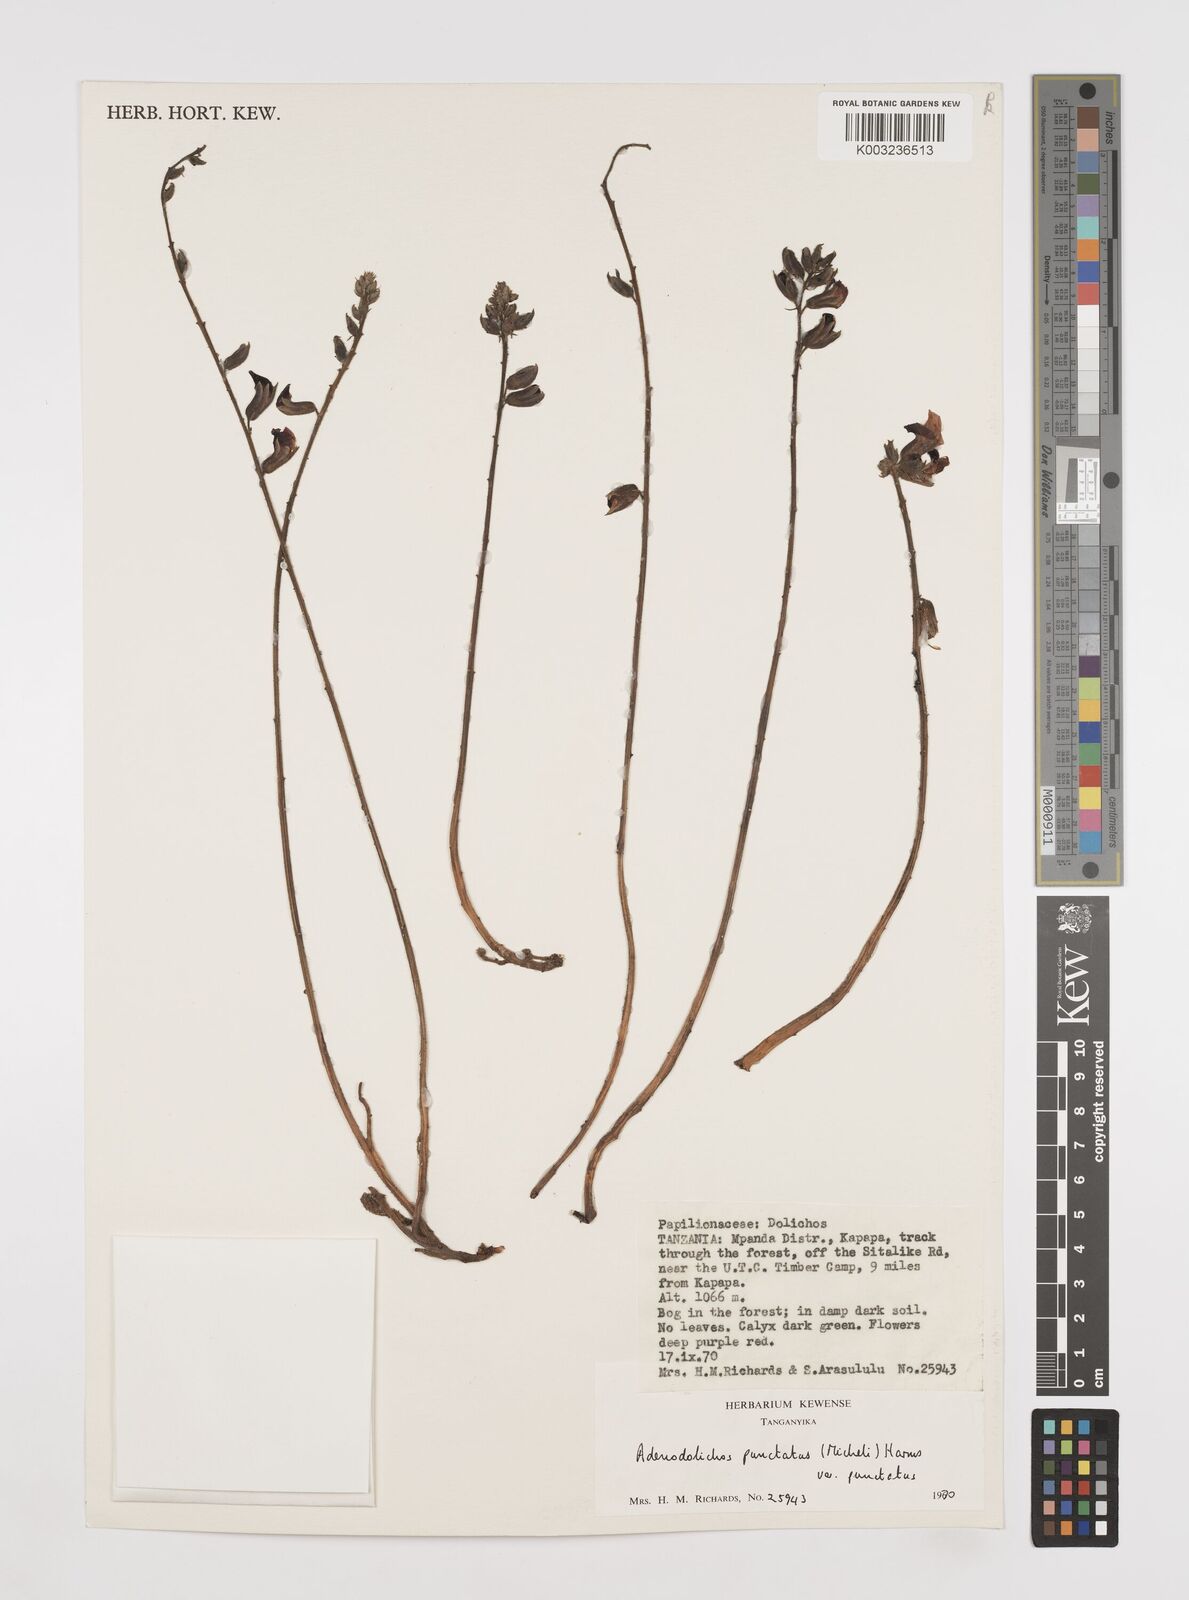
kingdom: Plantae
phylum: Tracheophyta
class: Magnoliopsida
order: Fabales
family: Fabaceae
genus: Adenodolichos
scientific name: Adenodolichos punctatus
